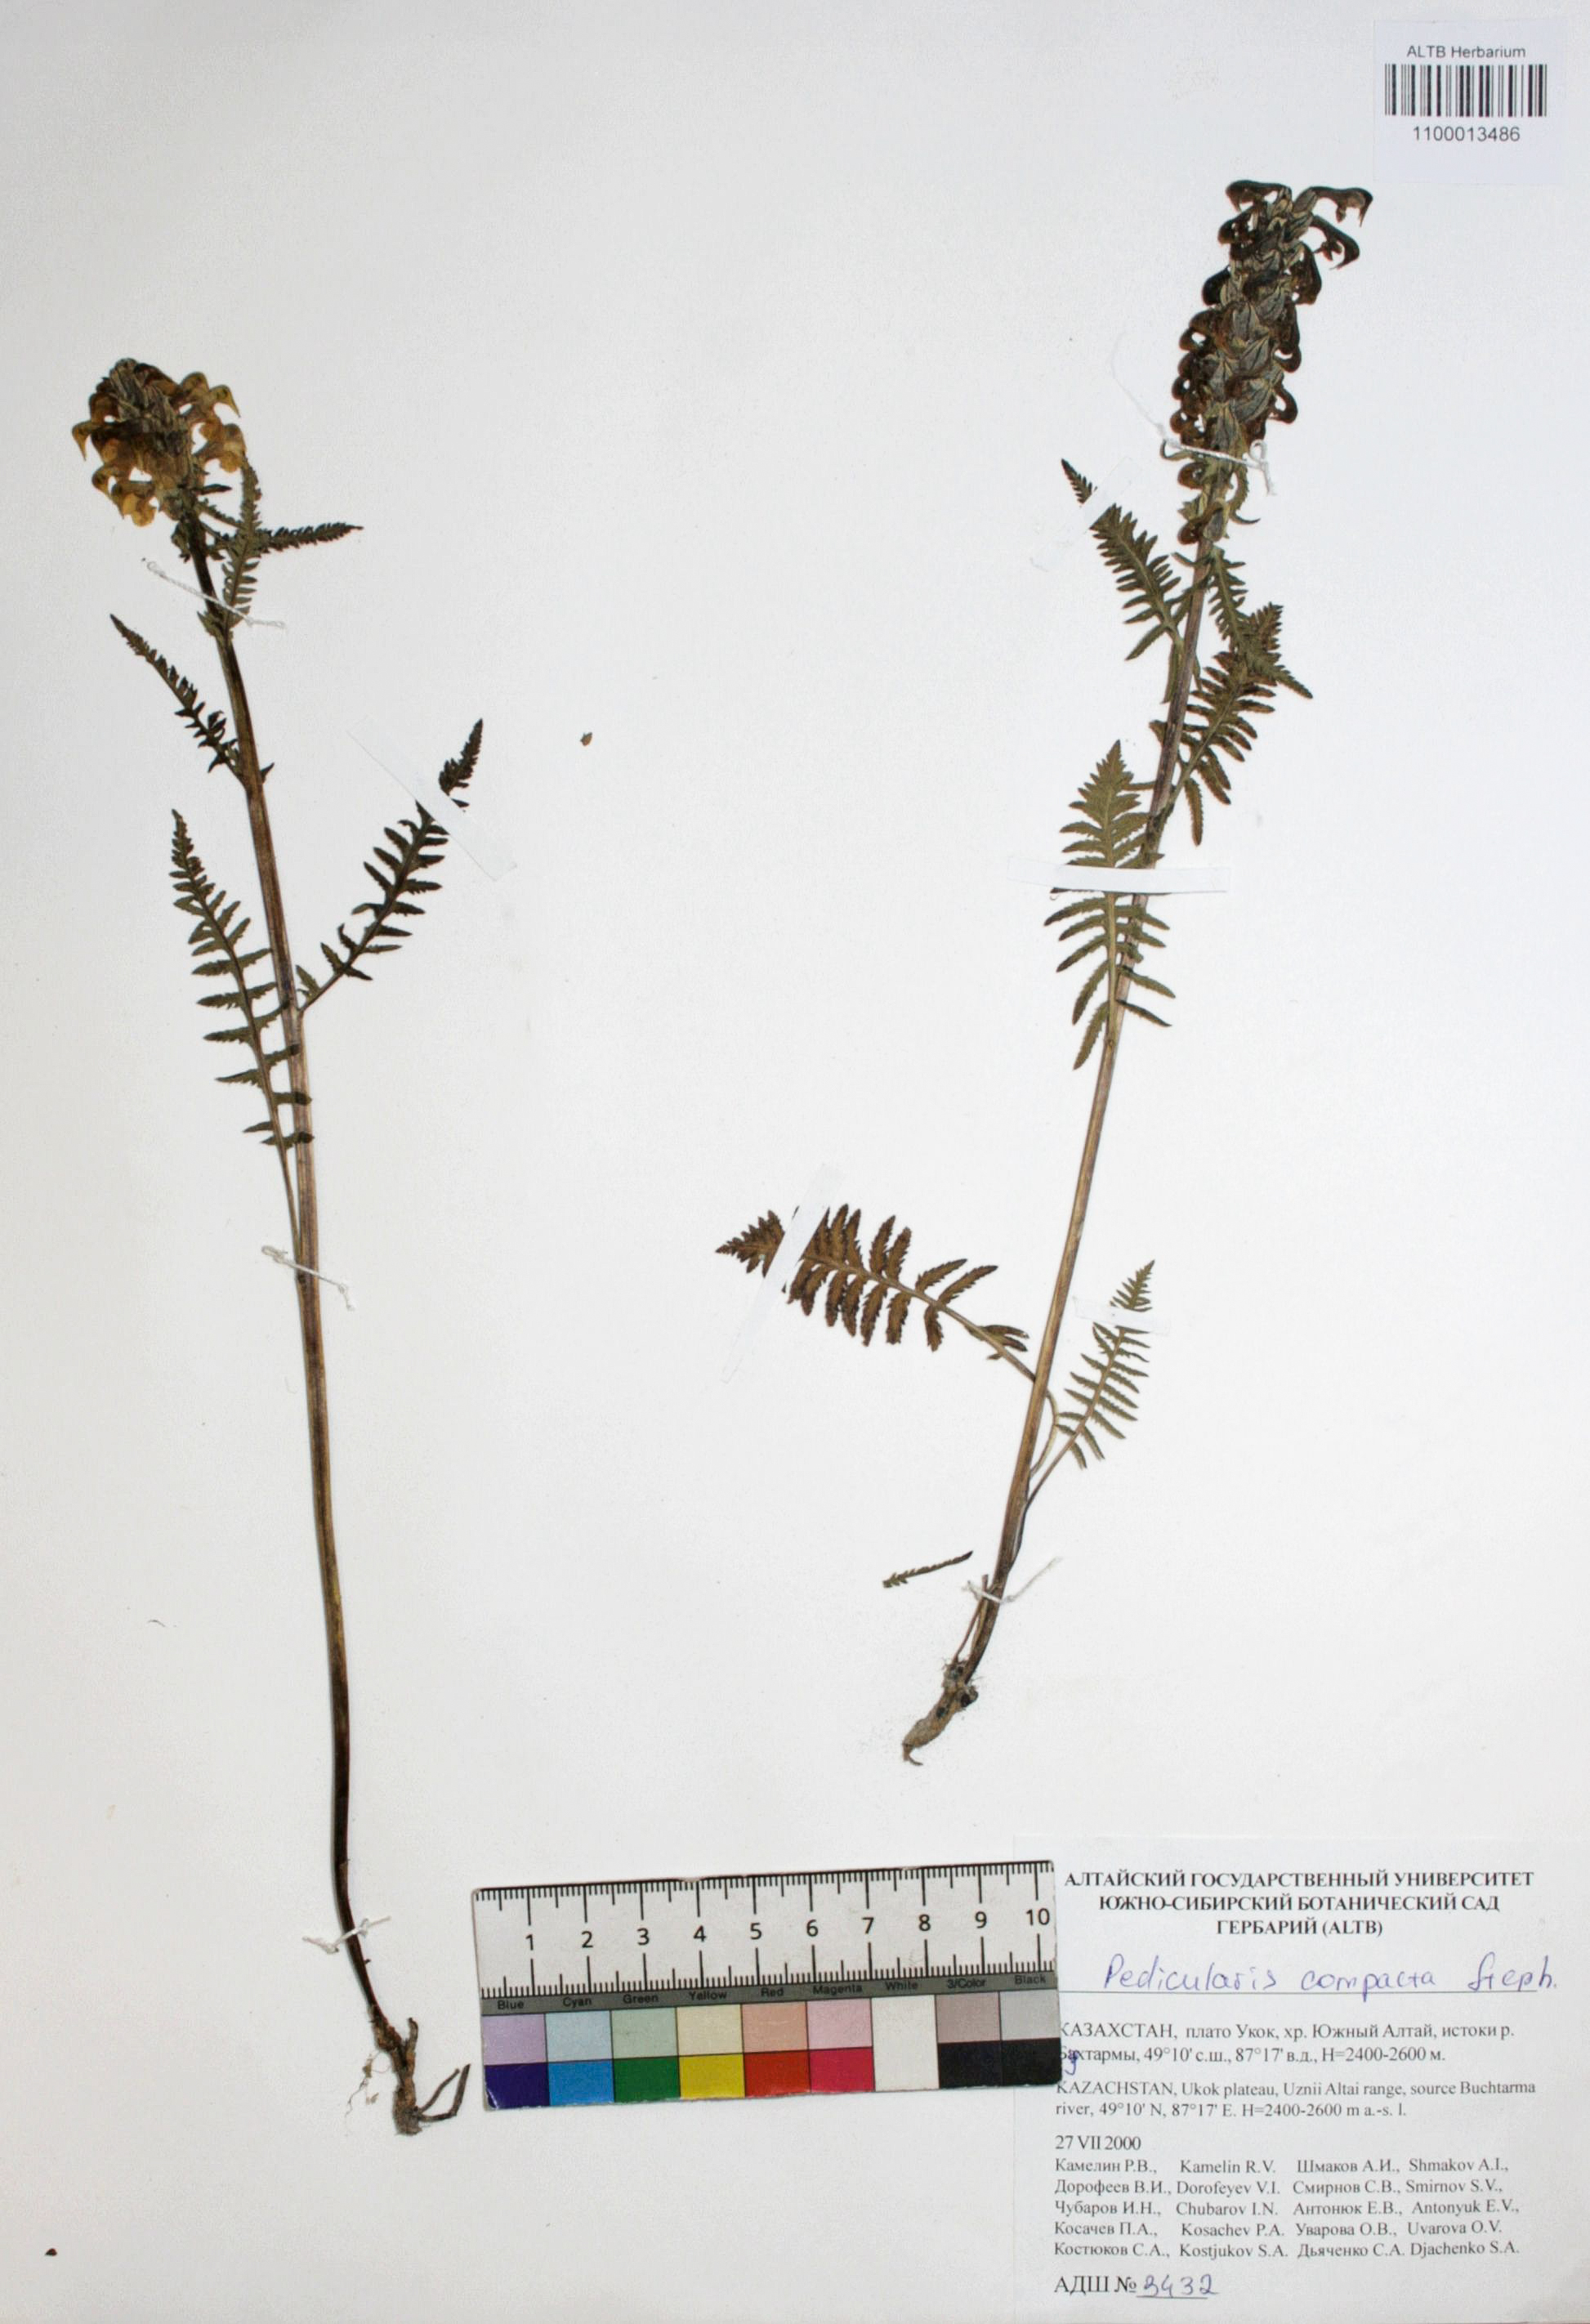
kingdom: Plantae
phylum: Tracheophyta
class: Magnoliopsida
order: Lamiales
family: Orobanchaceae
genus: Pedicularis
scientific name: Pedicularis compacta
